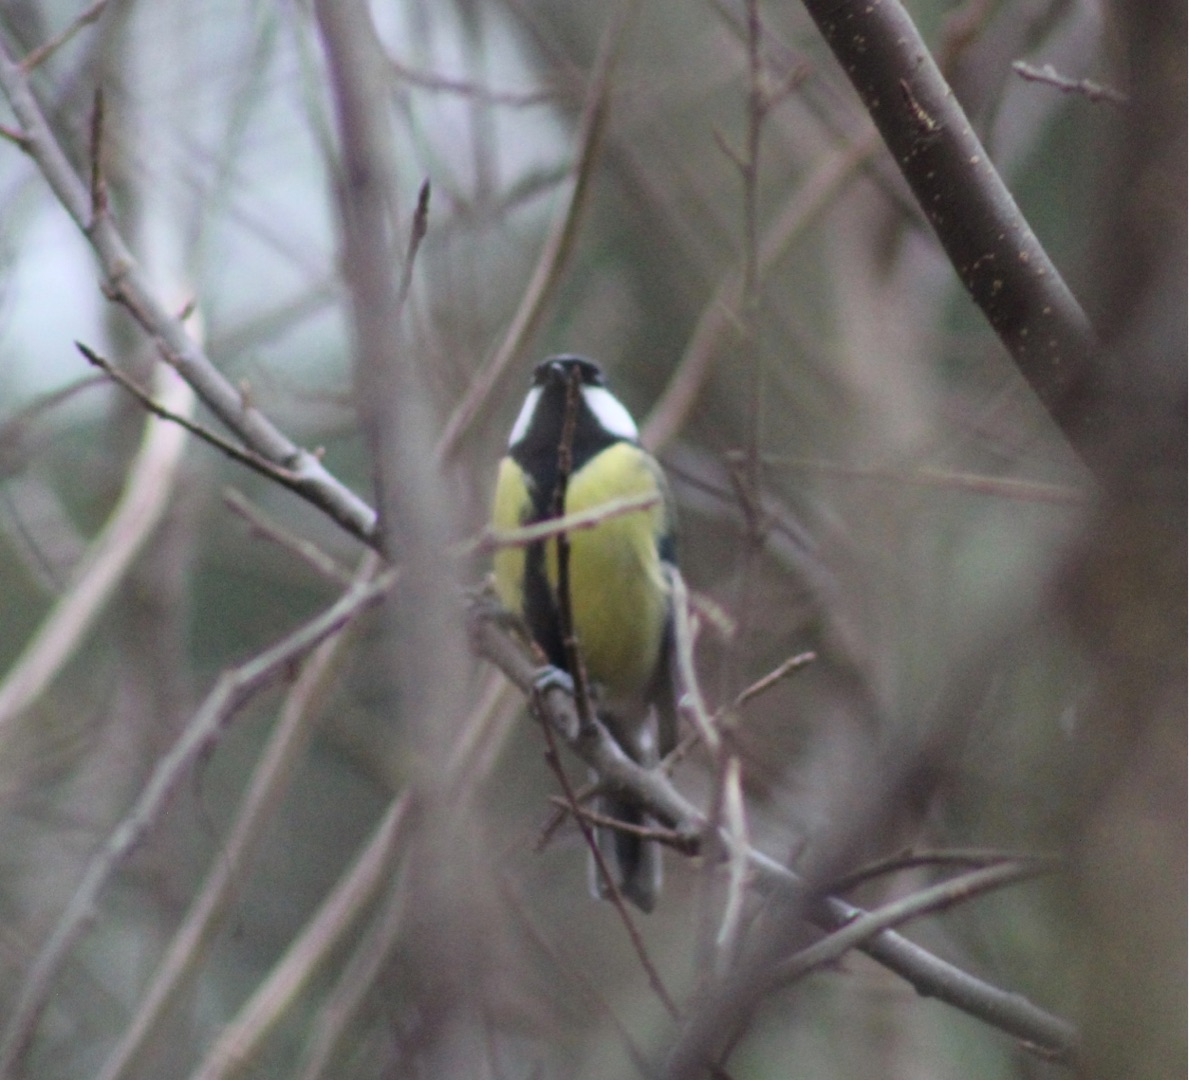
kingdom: Animalia
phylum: Chordata
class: Aves
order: Passeriformes
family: Paridae
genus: Parus
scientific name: Parus major
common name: Musvit
